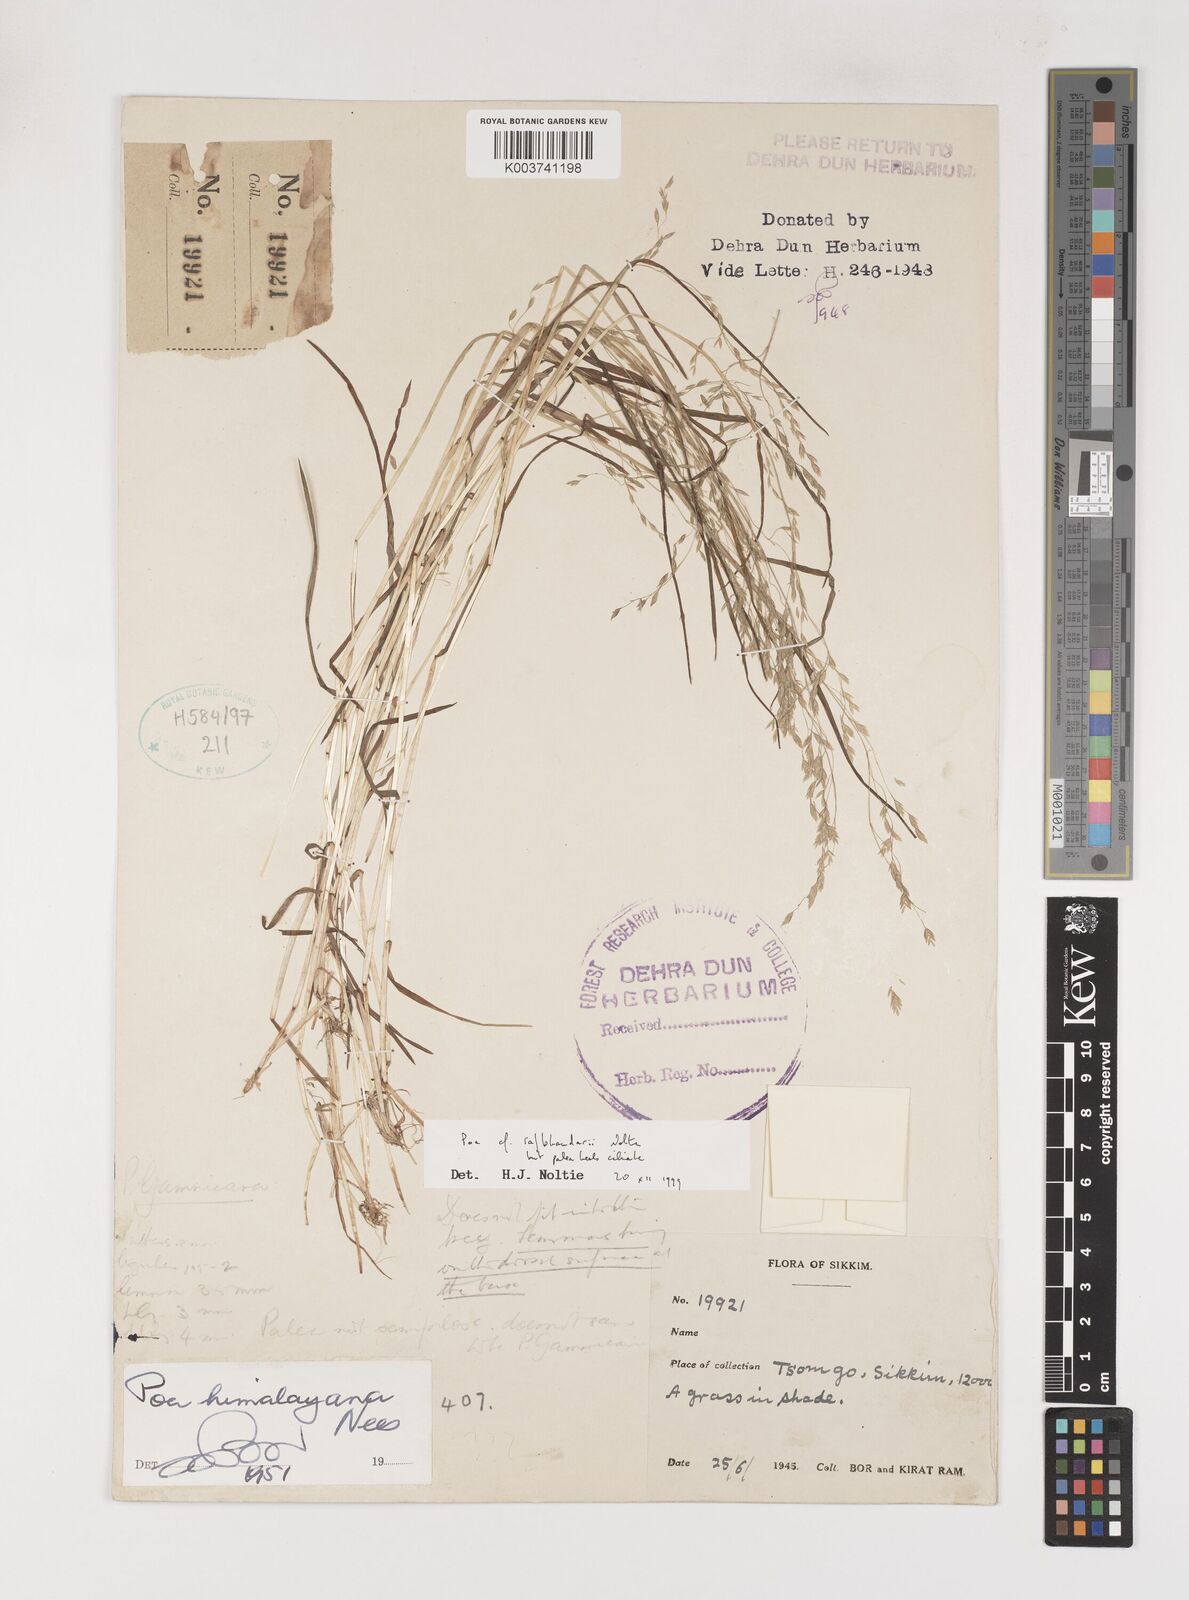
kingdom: Plantae
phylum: Tracheophyta
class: Liliopsida
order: Poales
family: Poaceae
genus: Poa
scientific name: Poa rajbhandarii
